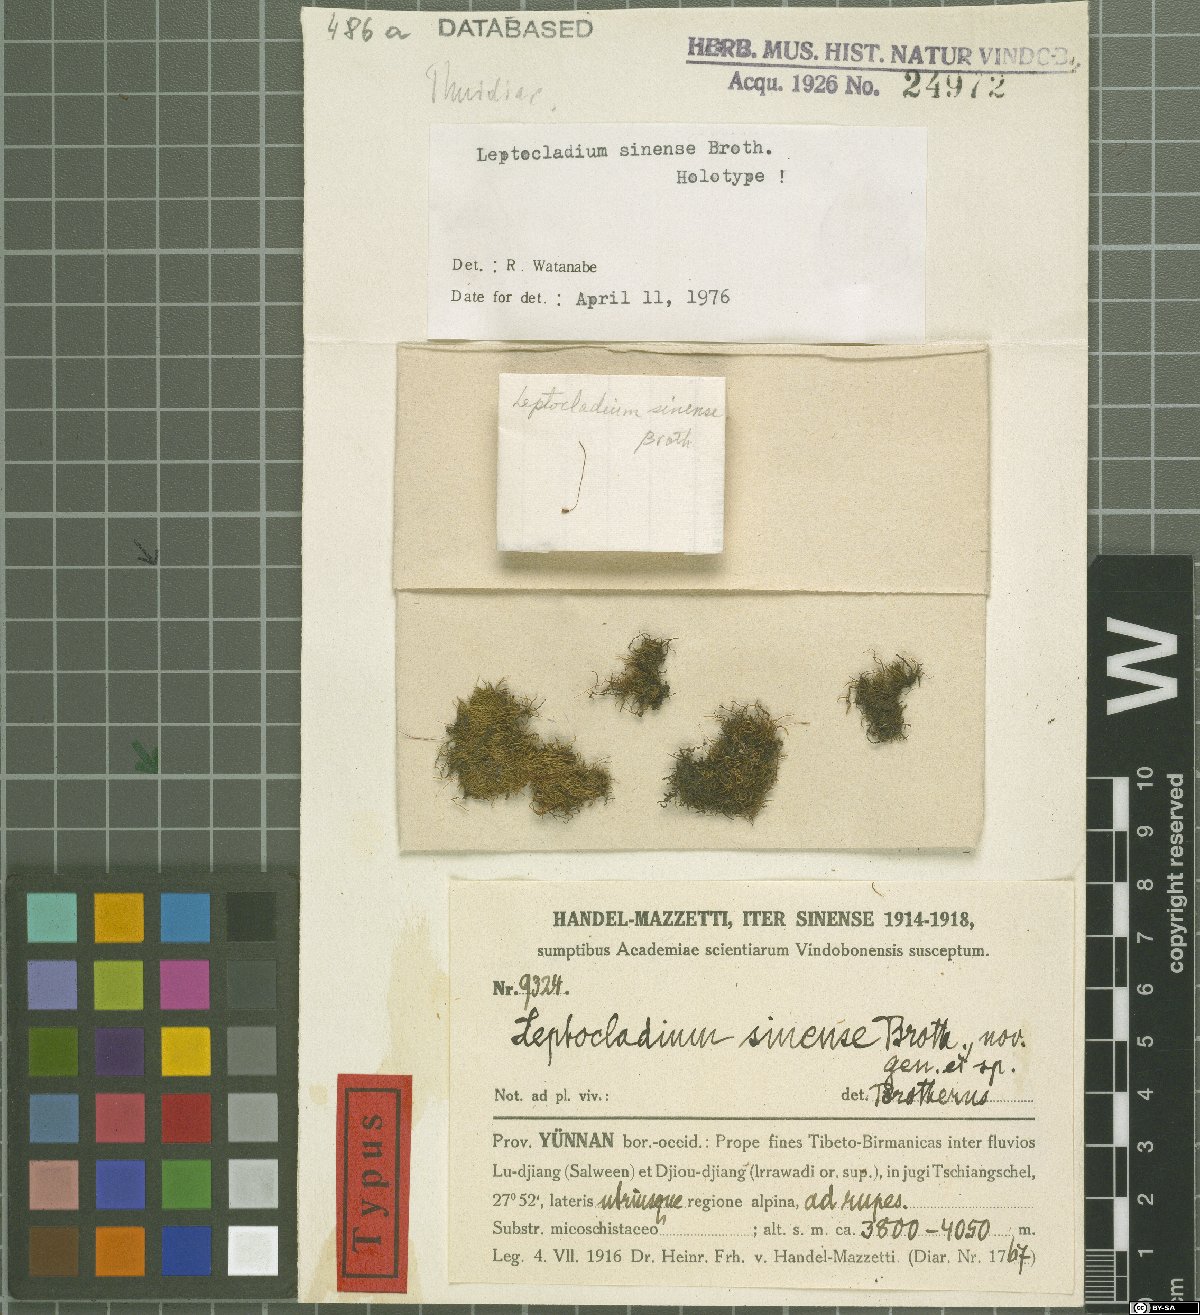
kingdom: Plantae
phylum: Bryophyta
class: Bryopsida
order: Hypnales
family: Leskeaceae
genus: Leptocladium
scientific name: Leptocladium sinense
